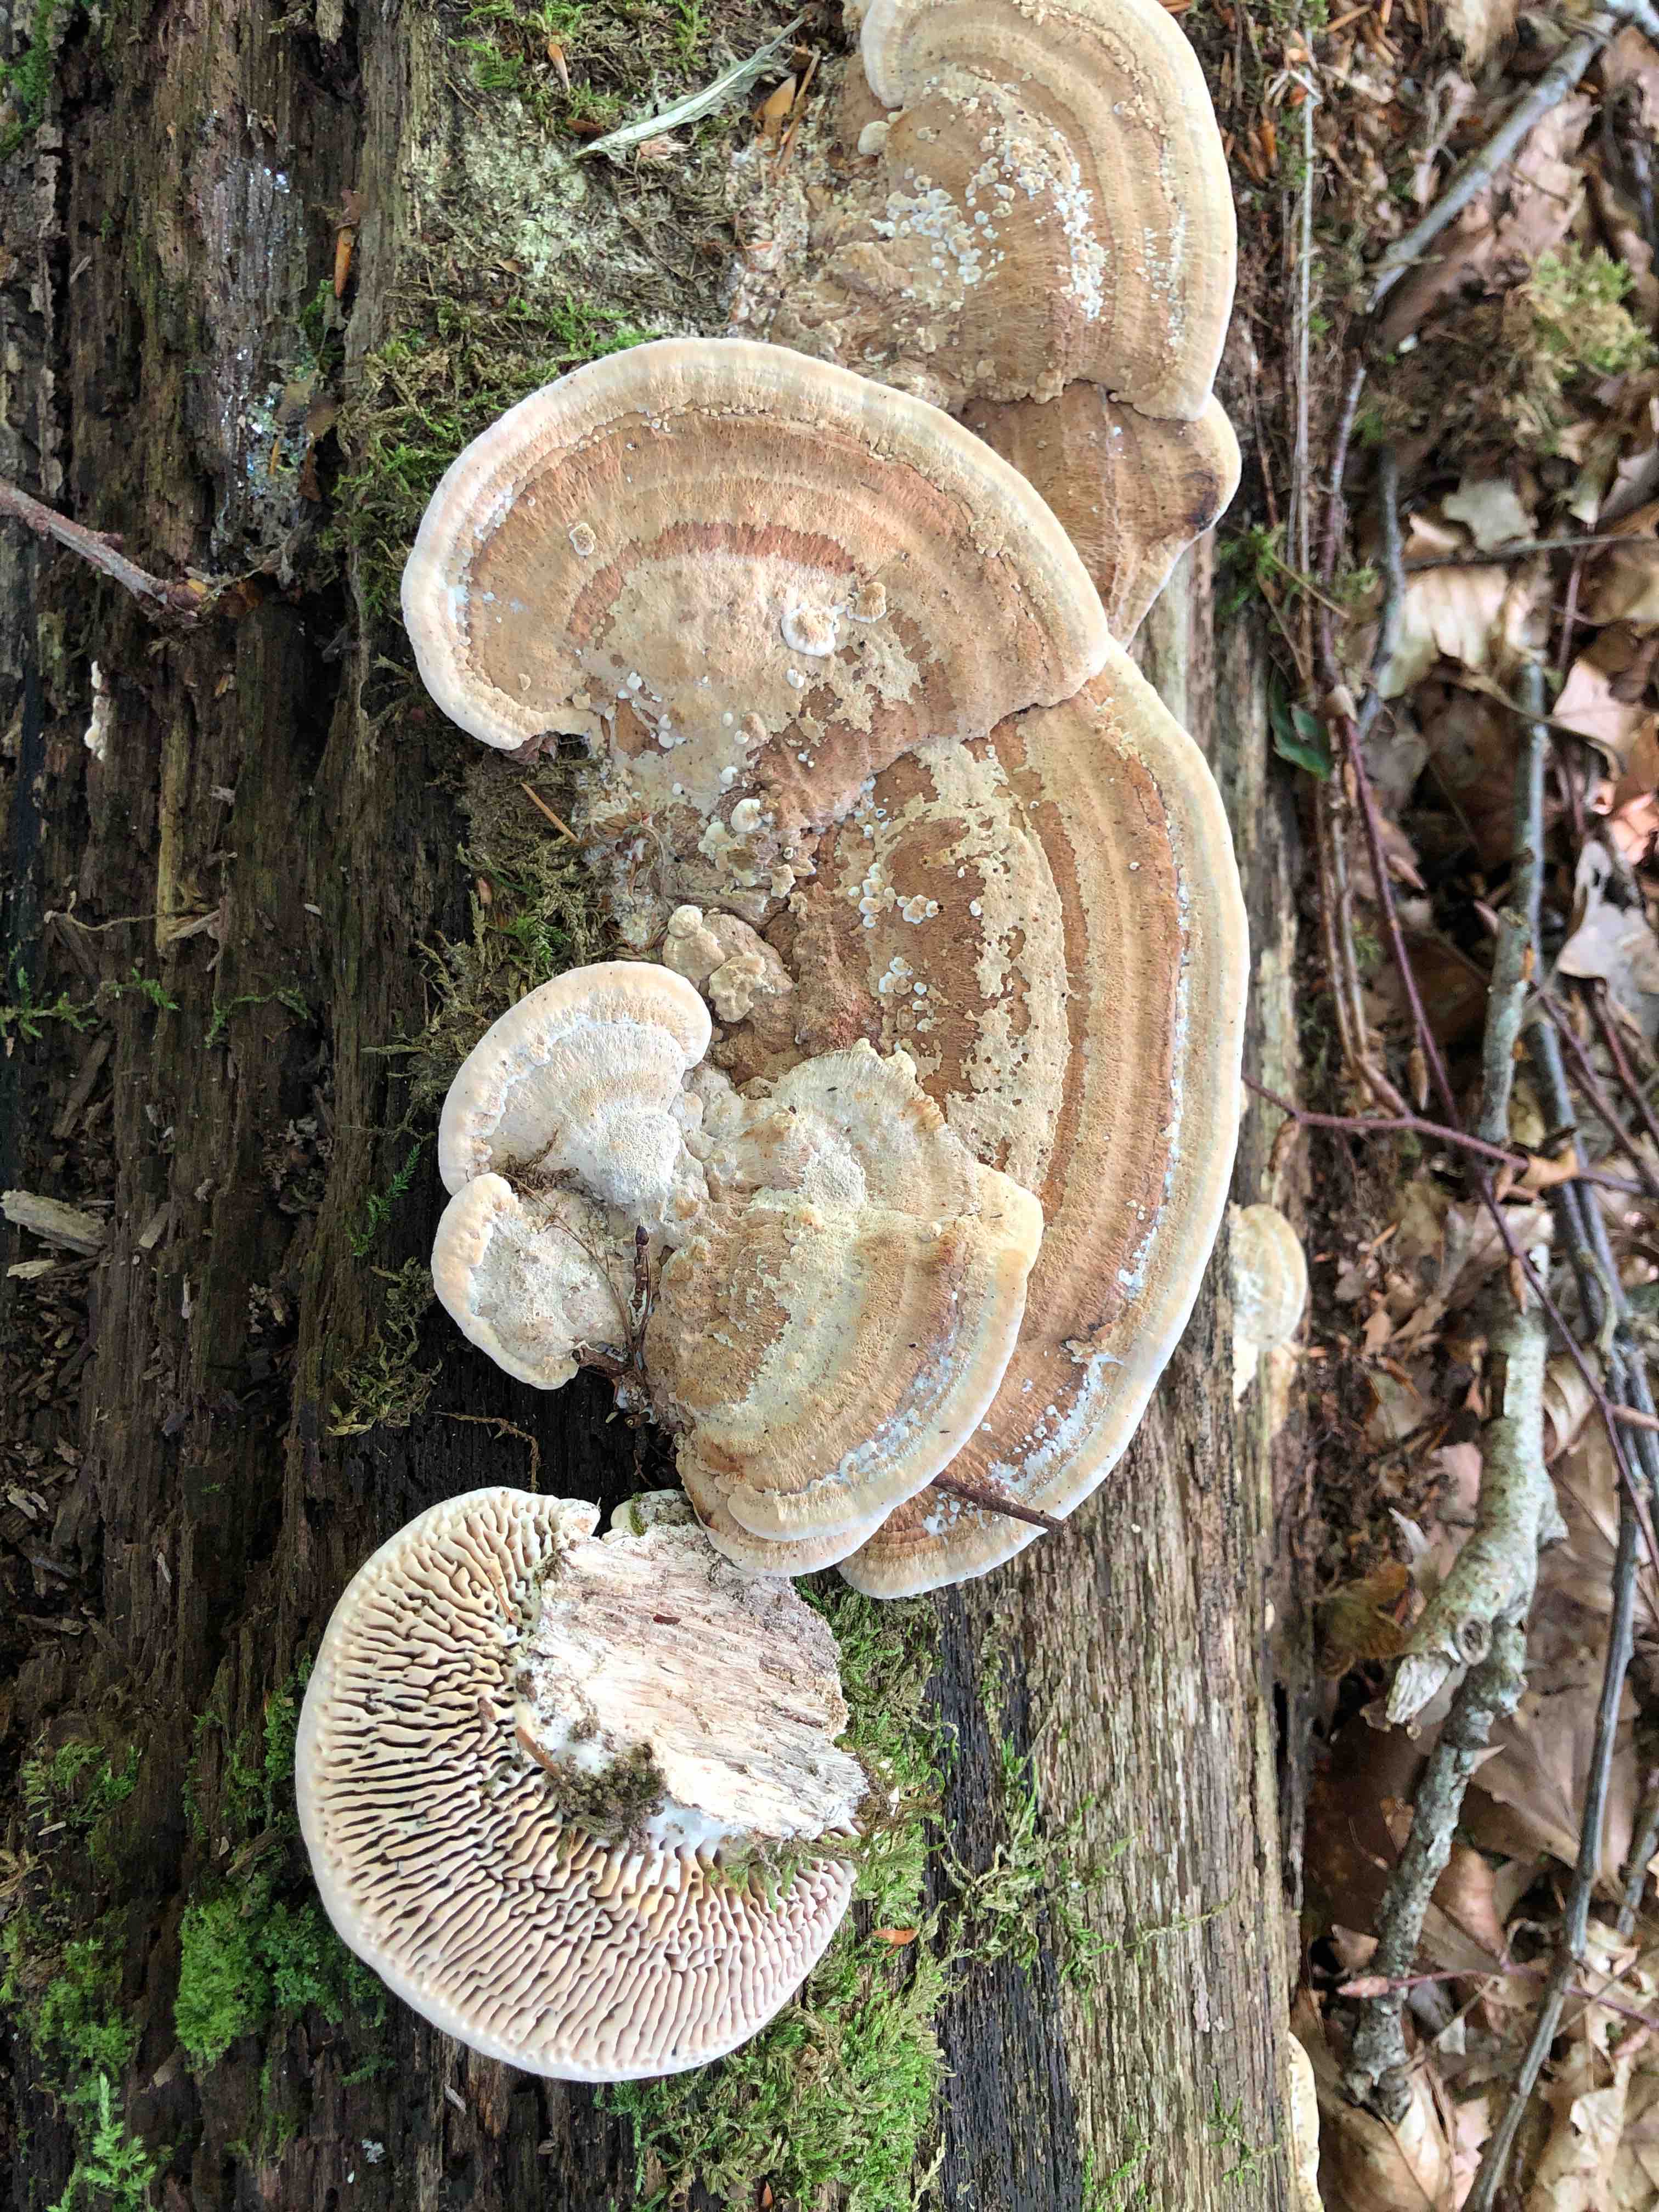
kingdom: Fungi
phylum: Basidiomycota
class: Agaricomycetes
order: Polyporales
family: Fomitopsidaceae
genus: Daedalea
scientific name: Daedalea quercina
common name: ege-labyrintsvamp
